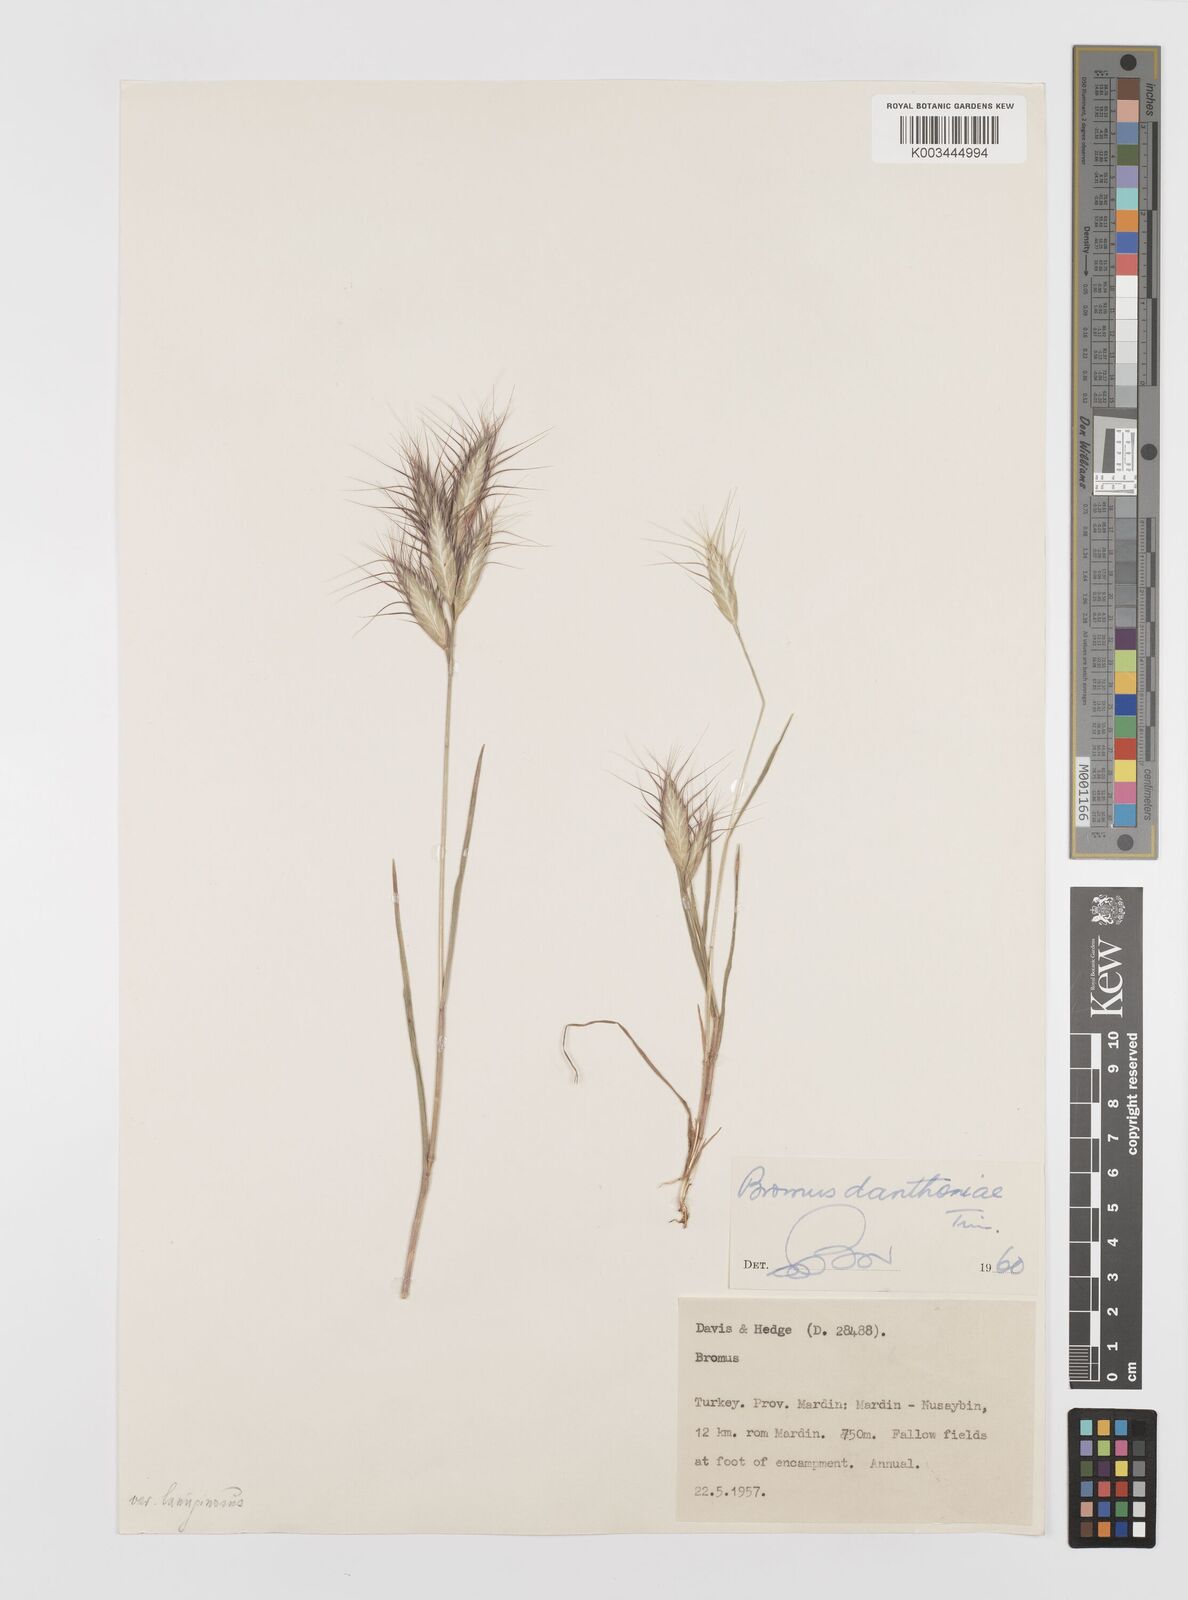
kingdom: Plantae
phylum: Tracheophyta
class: Liliopsida
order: Poales
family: Poaceae
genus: Bromus
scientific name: Bromus danthoniae
